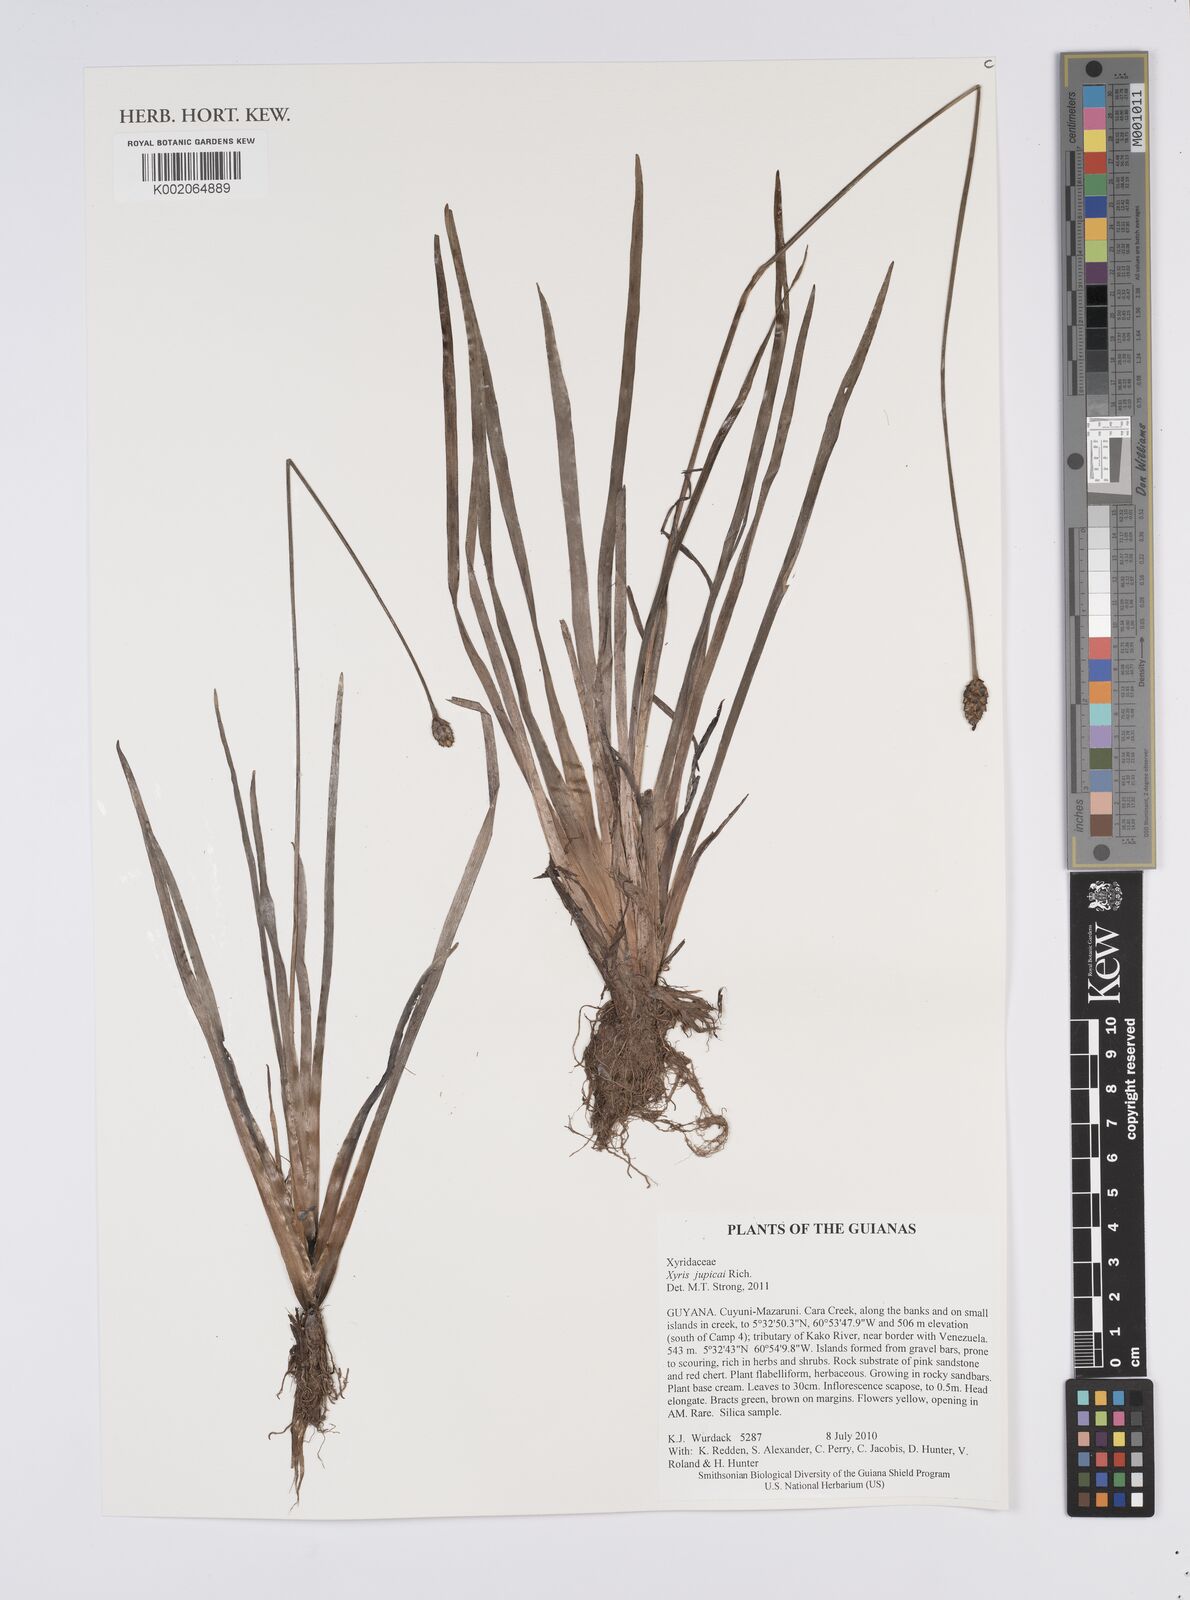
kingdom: Plantae
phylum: Tracheophyta
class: Liliopsida
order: Poales
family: Xyridaceae
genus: Xyris
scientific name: Xyris jupicai
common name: Richard's yelloweyed grass
